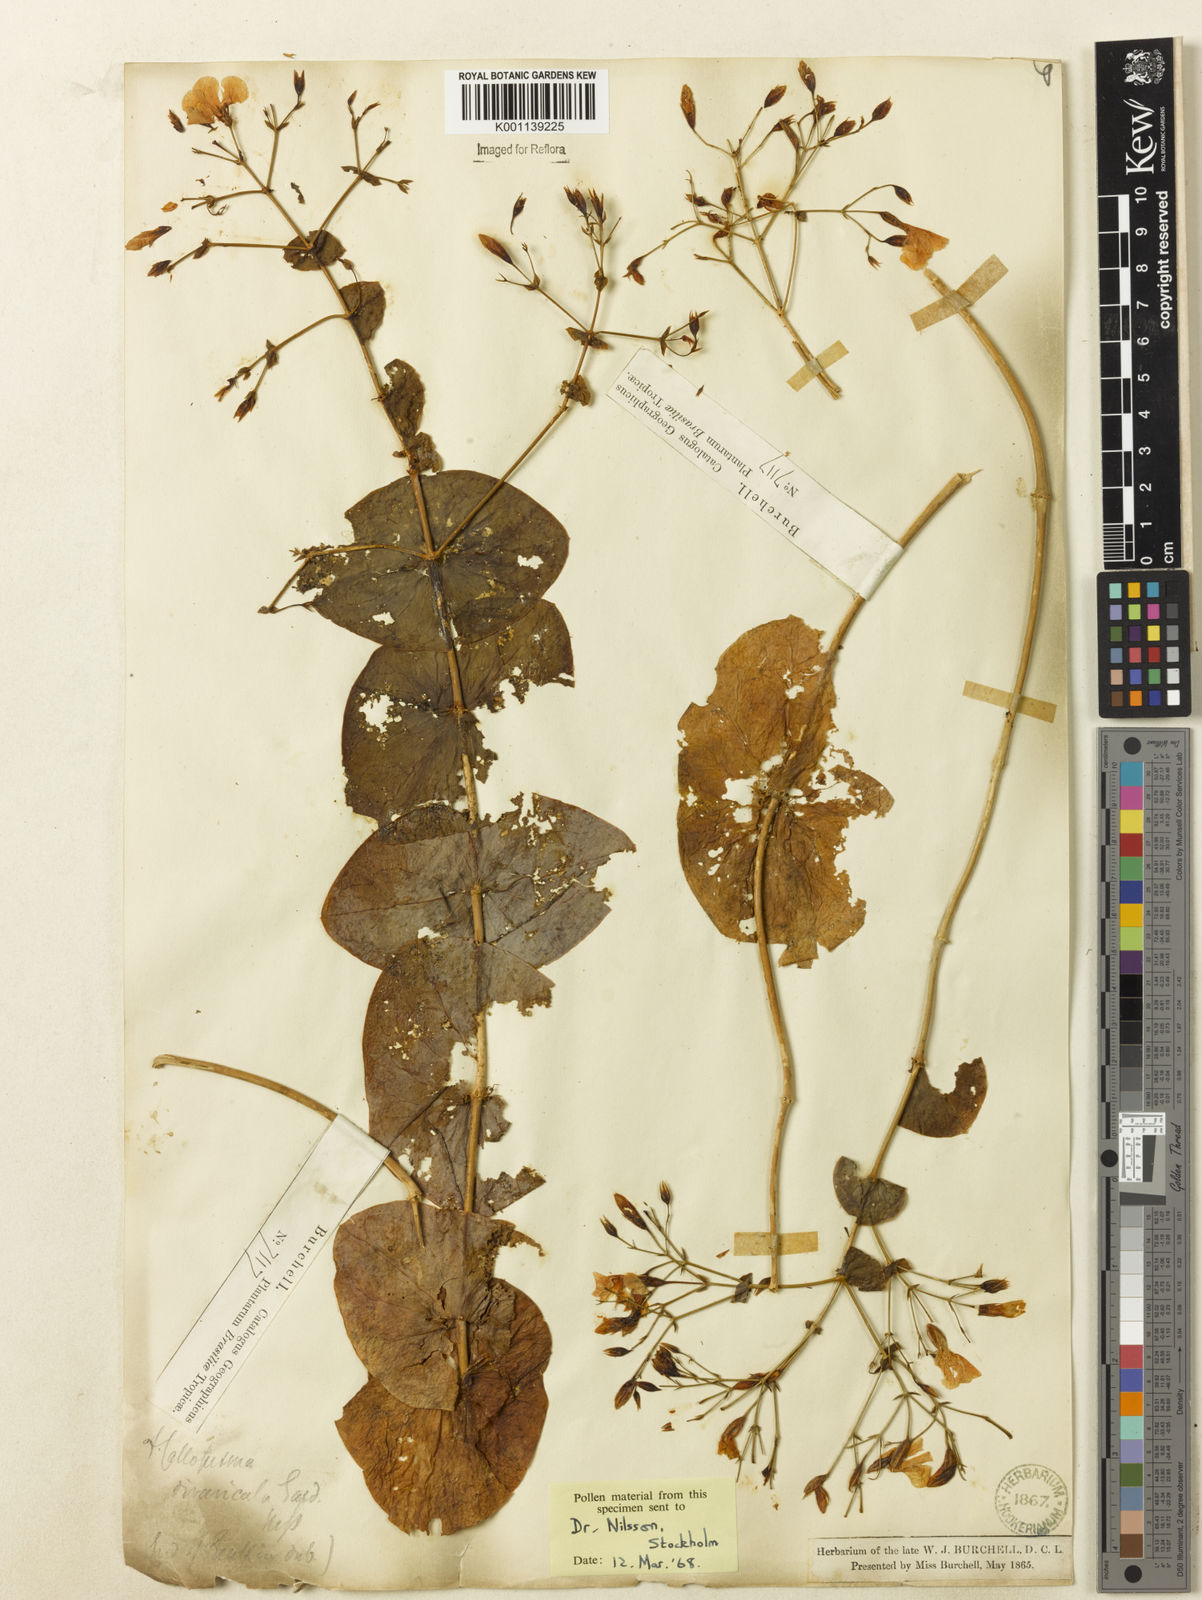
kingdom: Plantae
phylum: Tracheophyta
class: Magnoliopsida
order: Gentianales
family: Gentianaceae
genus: Symphyllophyton
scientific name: Symphyllophyton caprifolioides
